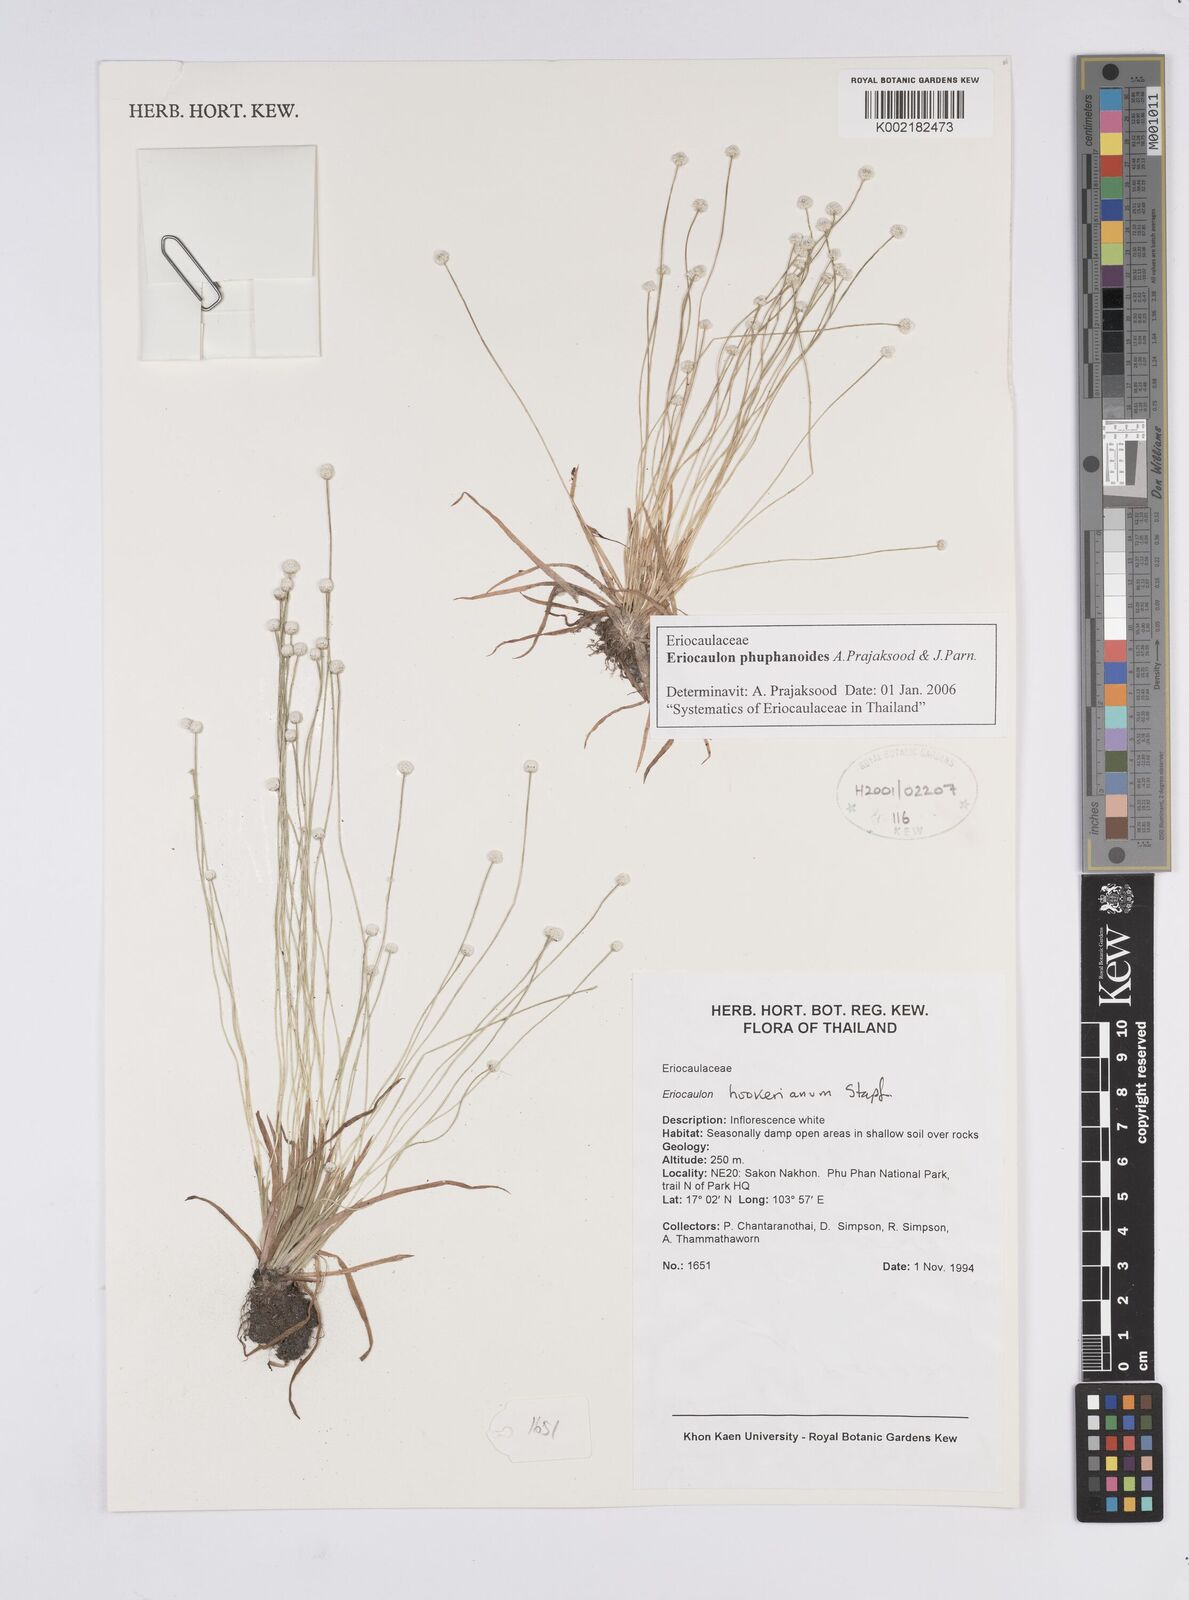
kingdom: Plantae
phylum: Tracheophyta
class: Liliopsida
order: Poales
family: Eriocaulaceae
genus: Eriocaulon
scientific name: Eriocaulon phuphanoides
